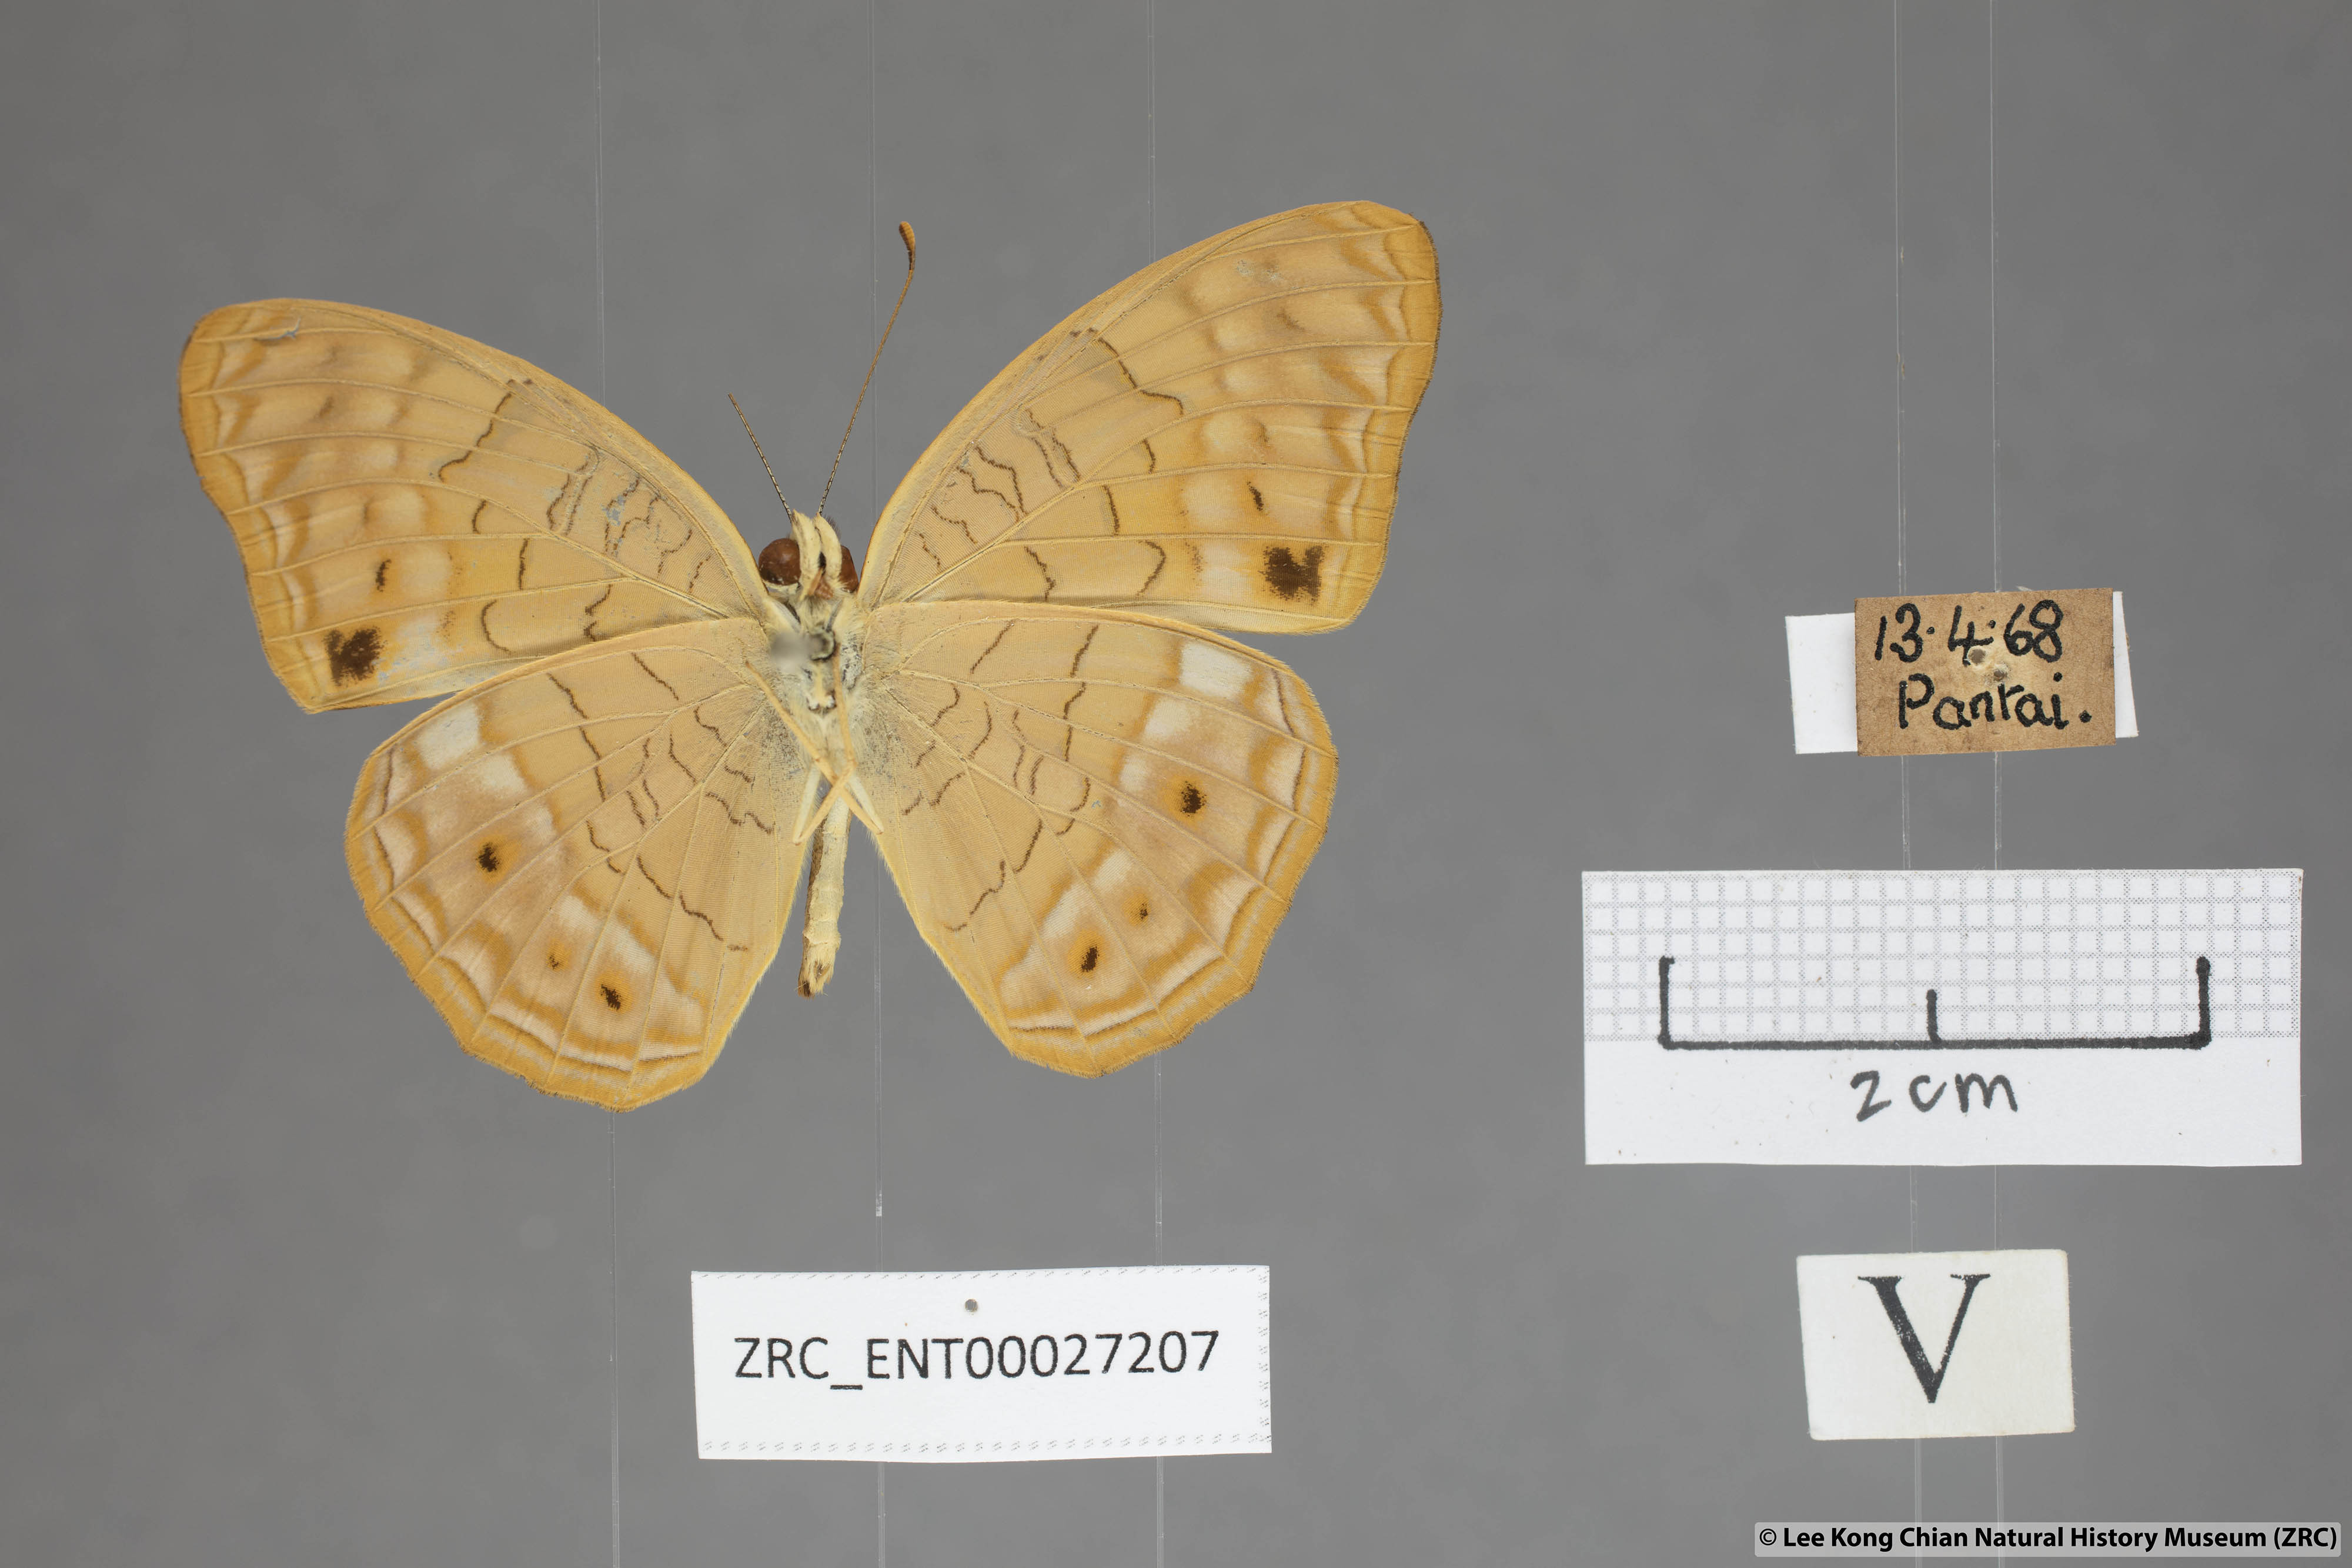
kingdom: Animalia
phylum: Arthropoda
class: Insecta
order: Lepidoptera
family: Nymphalidae
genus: Phalanta
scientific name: Phalanta alcippe
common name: Small leopard
